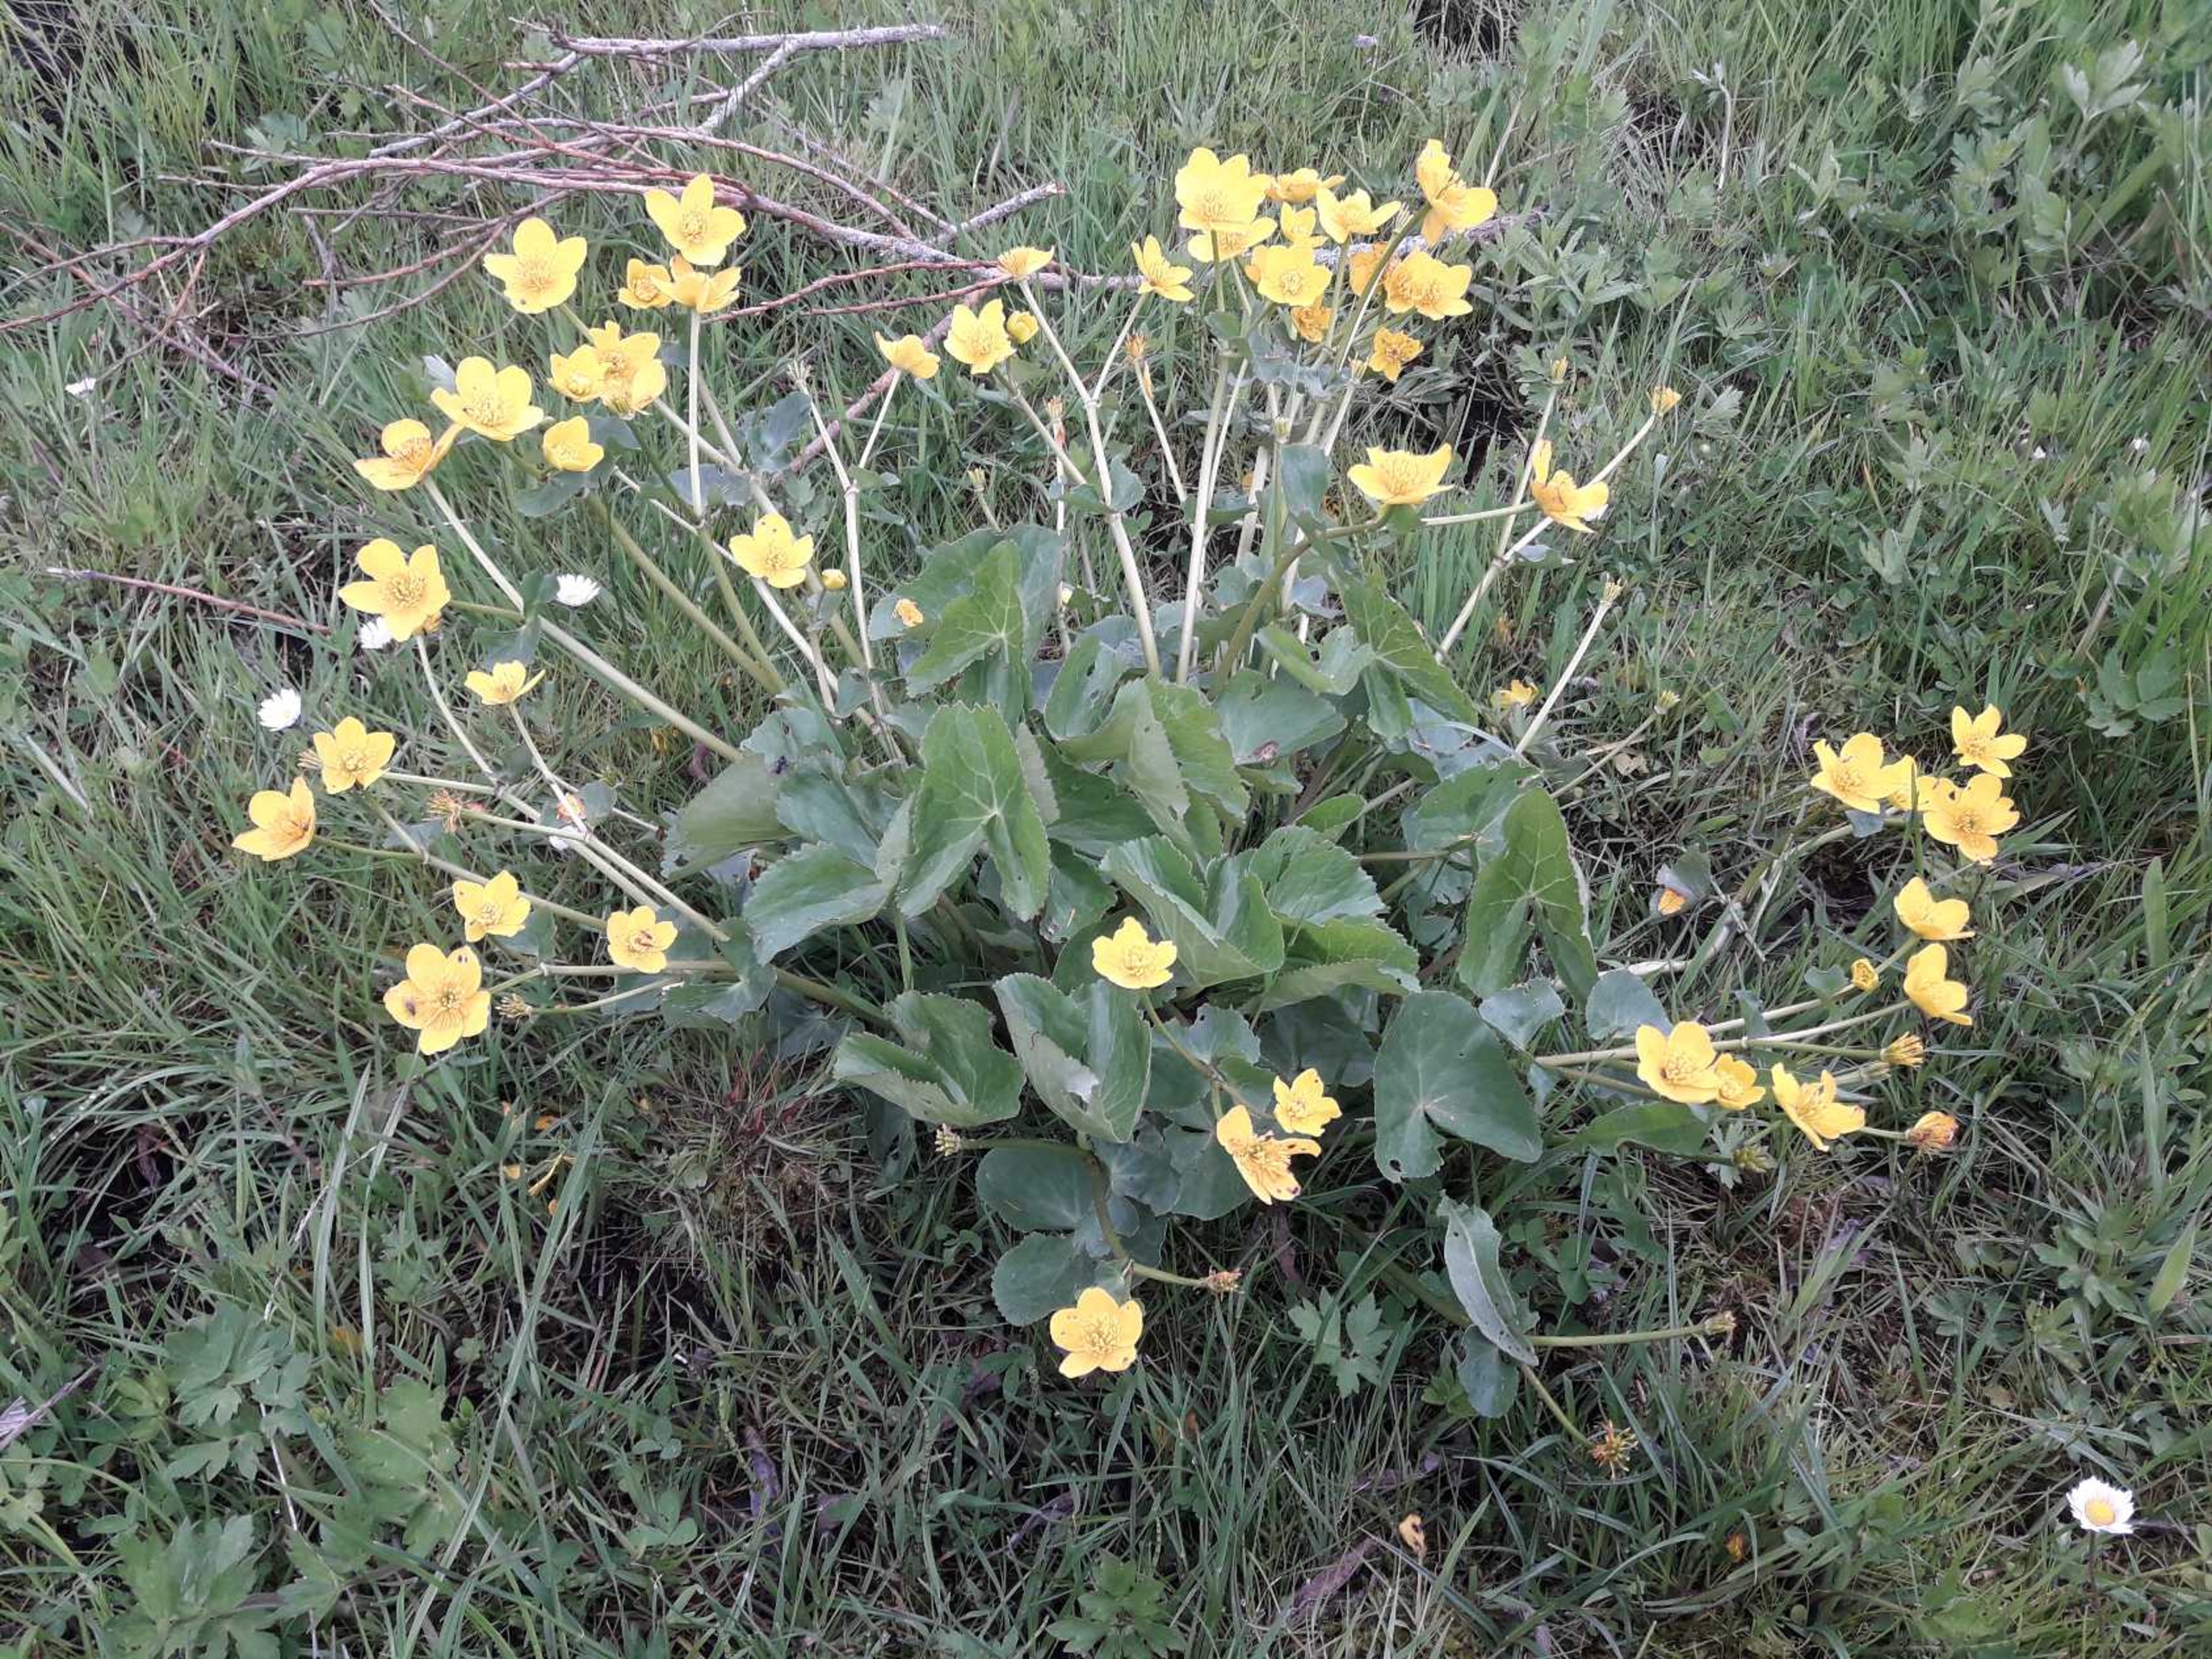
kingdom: Plantae
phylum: Tracheophyta
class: Magnoliopsida
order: Ranunculales
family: Ranunculaceae
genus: Caltha
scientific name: Caltha palustris
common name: Eng-kabbeleje
